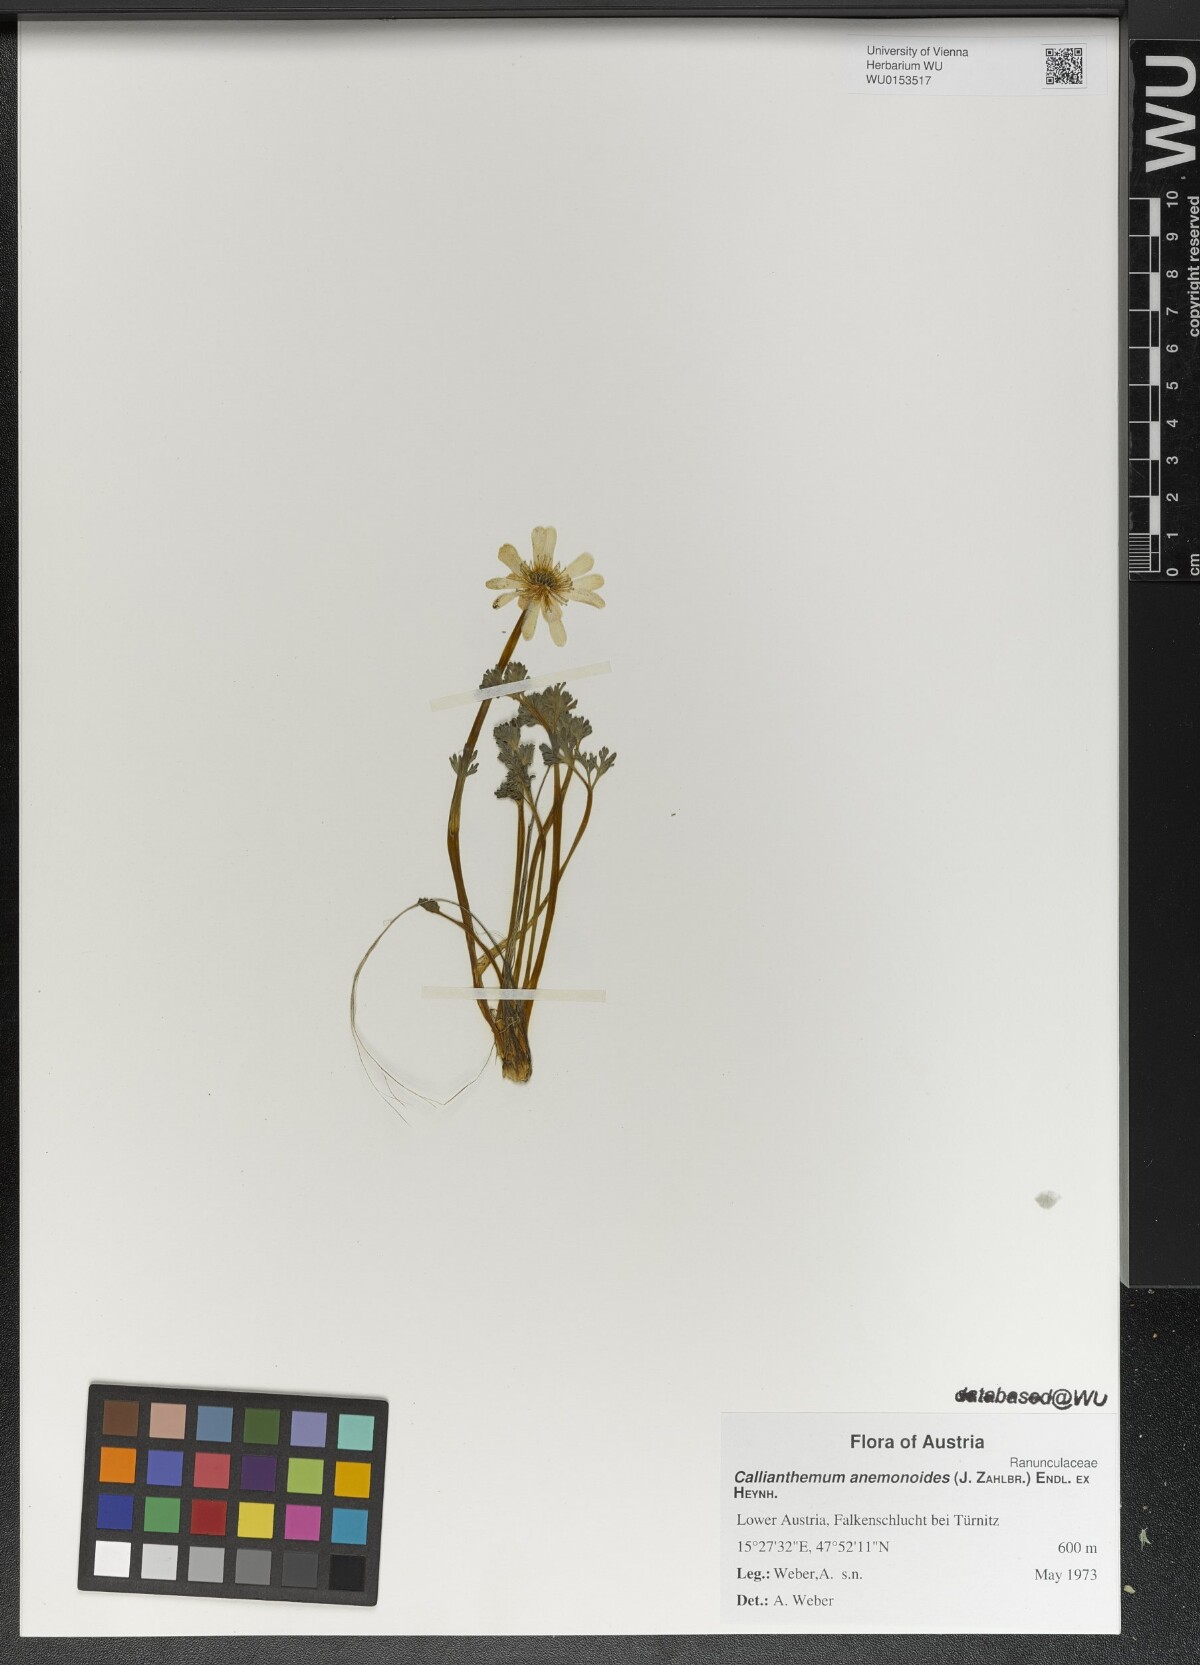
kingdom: Plantae
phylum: Tracheophyta
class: Magnoliopsida
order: Ranunculales
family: Ranunculaceae
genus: Callianthemum
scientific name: Callianthemum anemonoides
